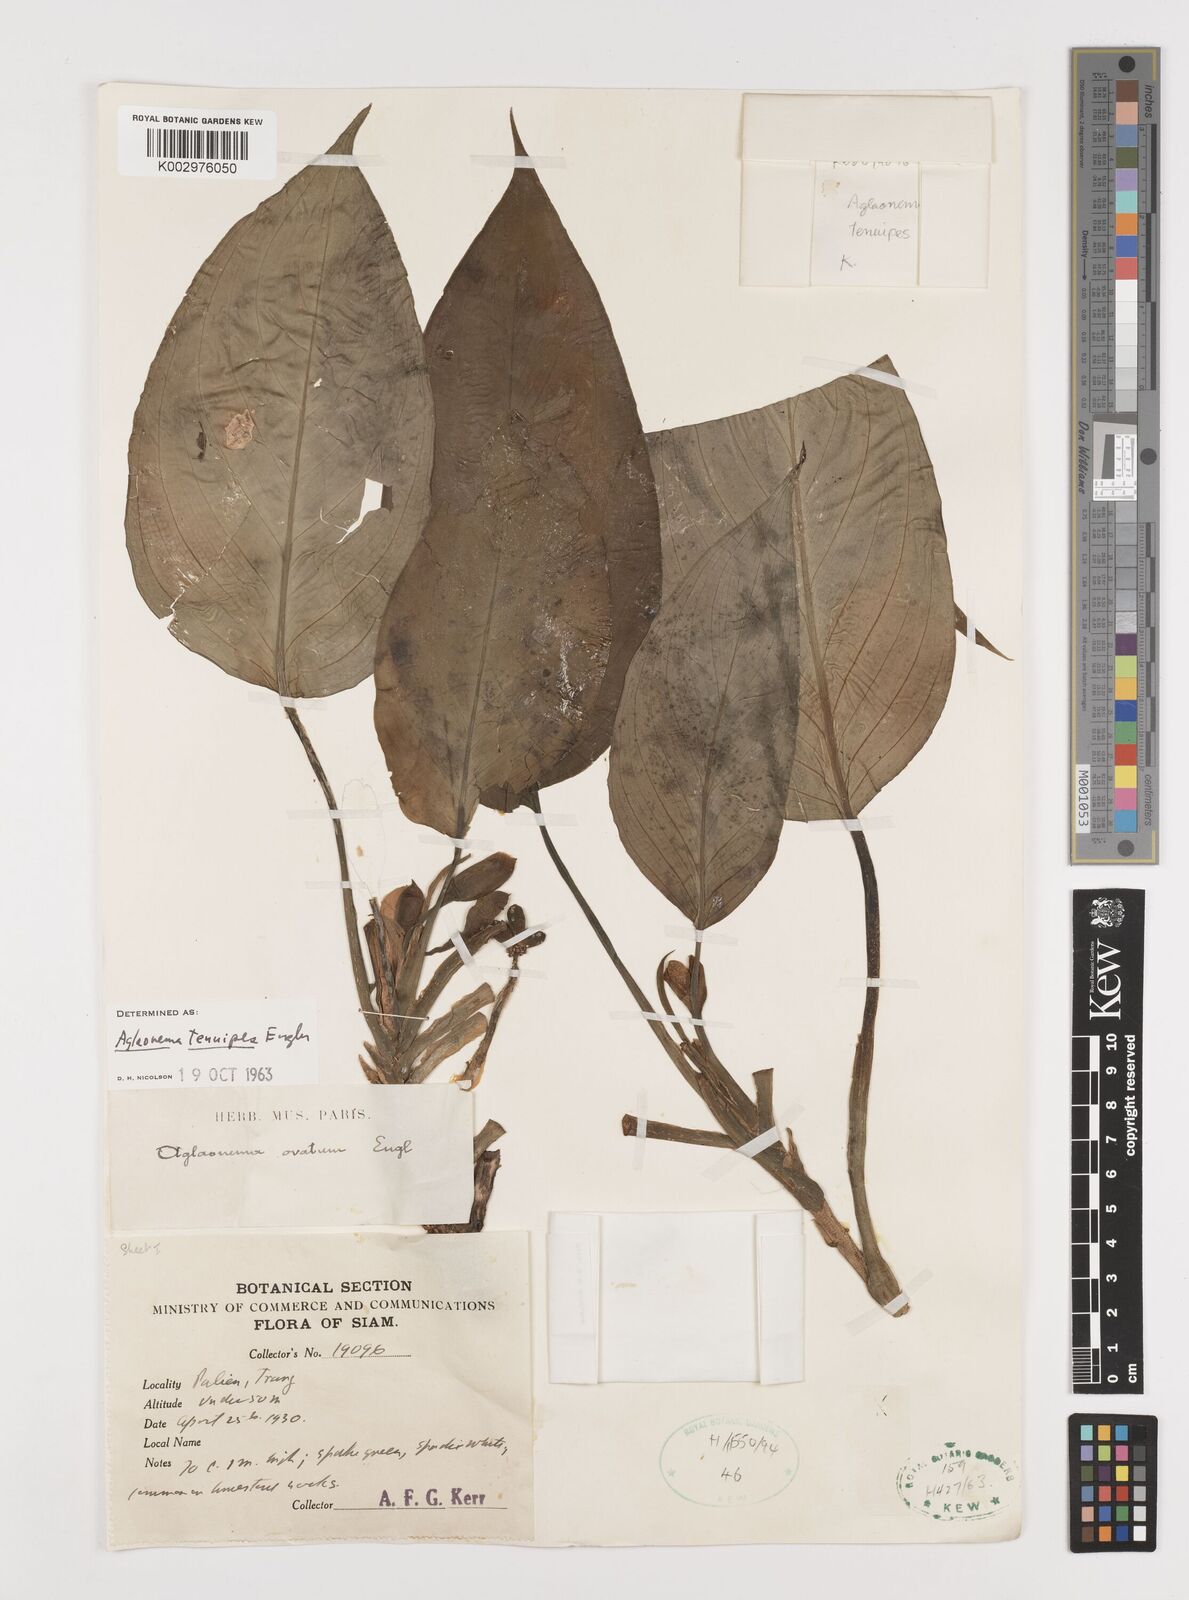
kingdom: Plantae
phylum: Tracheophyta
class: Liliopsida
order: Alismatales
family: Araceae
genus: Aglaonema
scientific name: Aglaonema simplex
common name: Malayan-sword
